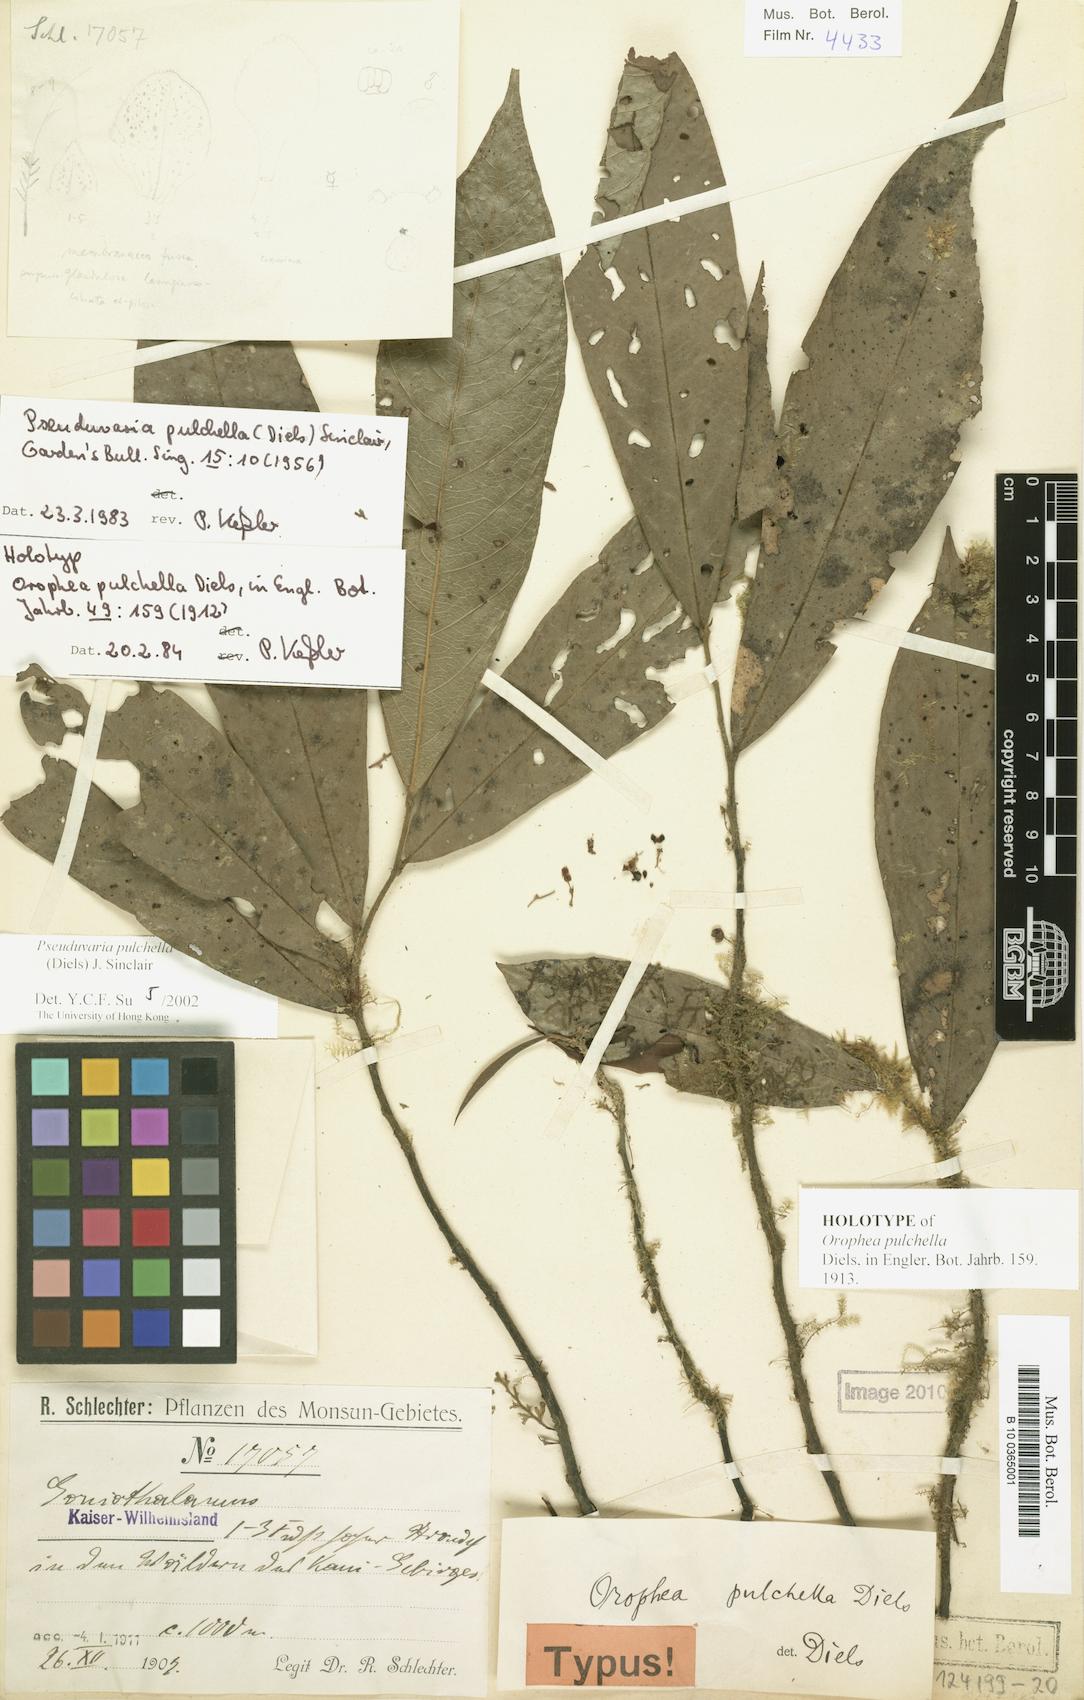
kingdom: Plantae
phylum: Tracheophyta
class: Magnoliopsida
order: Magnoliales
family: Annonaceae
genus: Pseuduvaria
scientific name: Pseuduvaria pulchella
